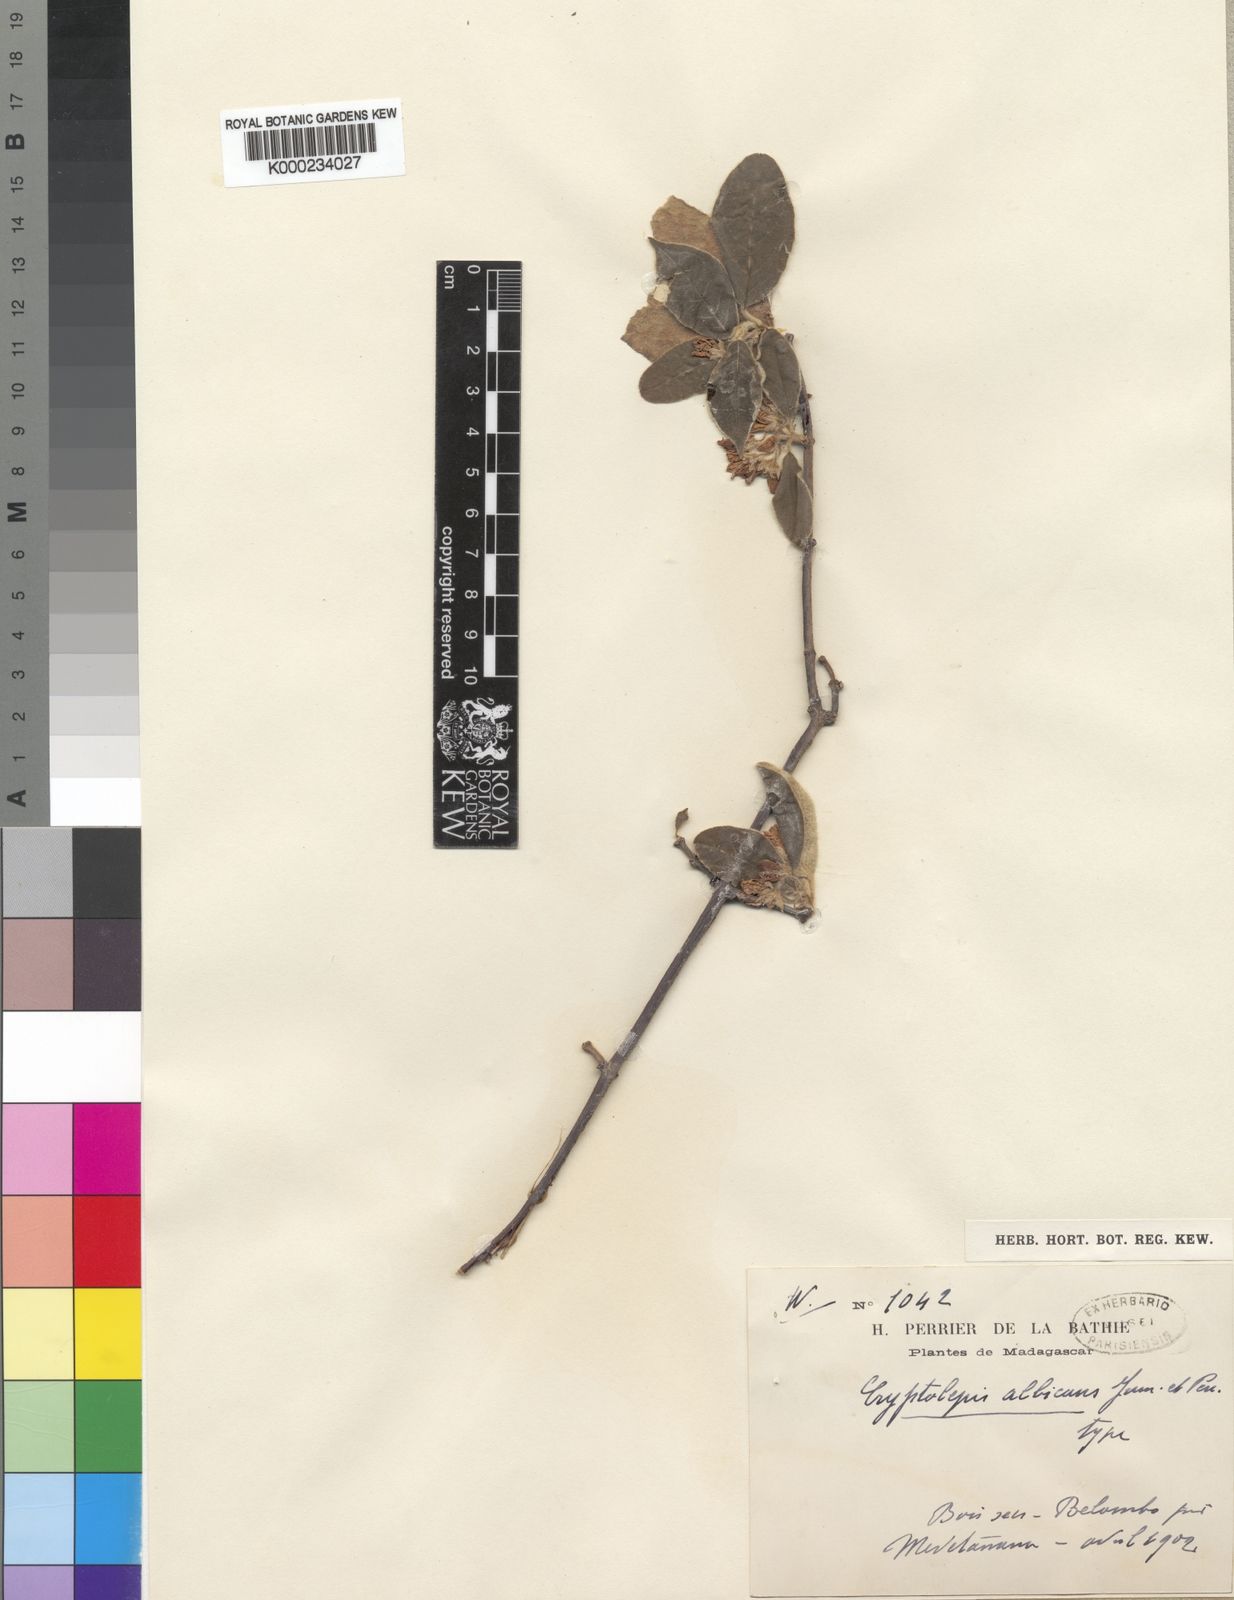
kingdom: Plantae
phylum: Tracheophyta
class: Magnoliopsida
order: Gentianales
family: Apocynaceae
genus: Pentopetia
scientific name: Pentopetia albicans
